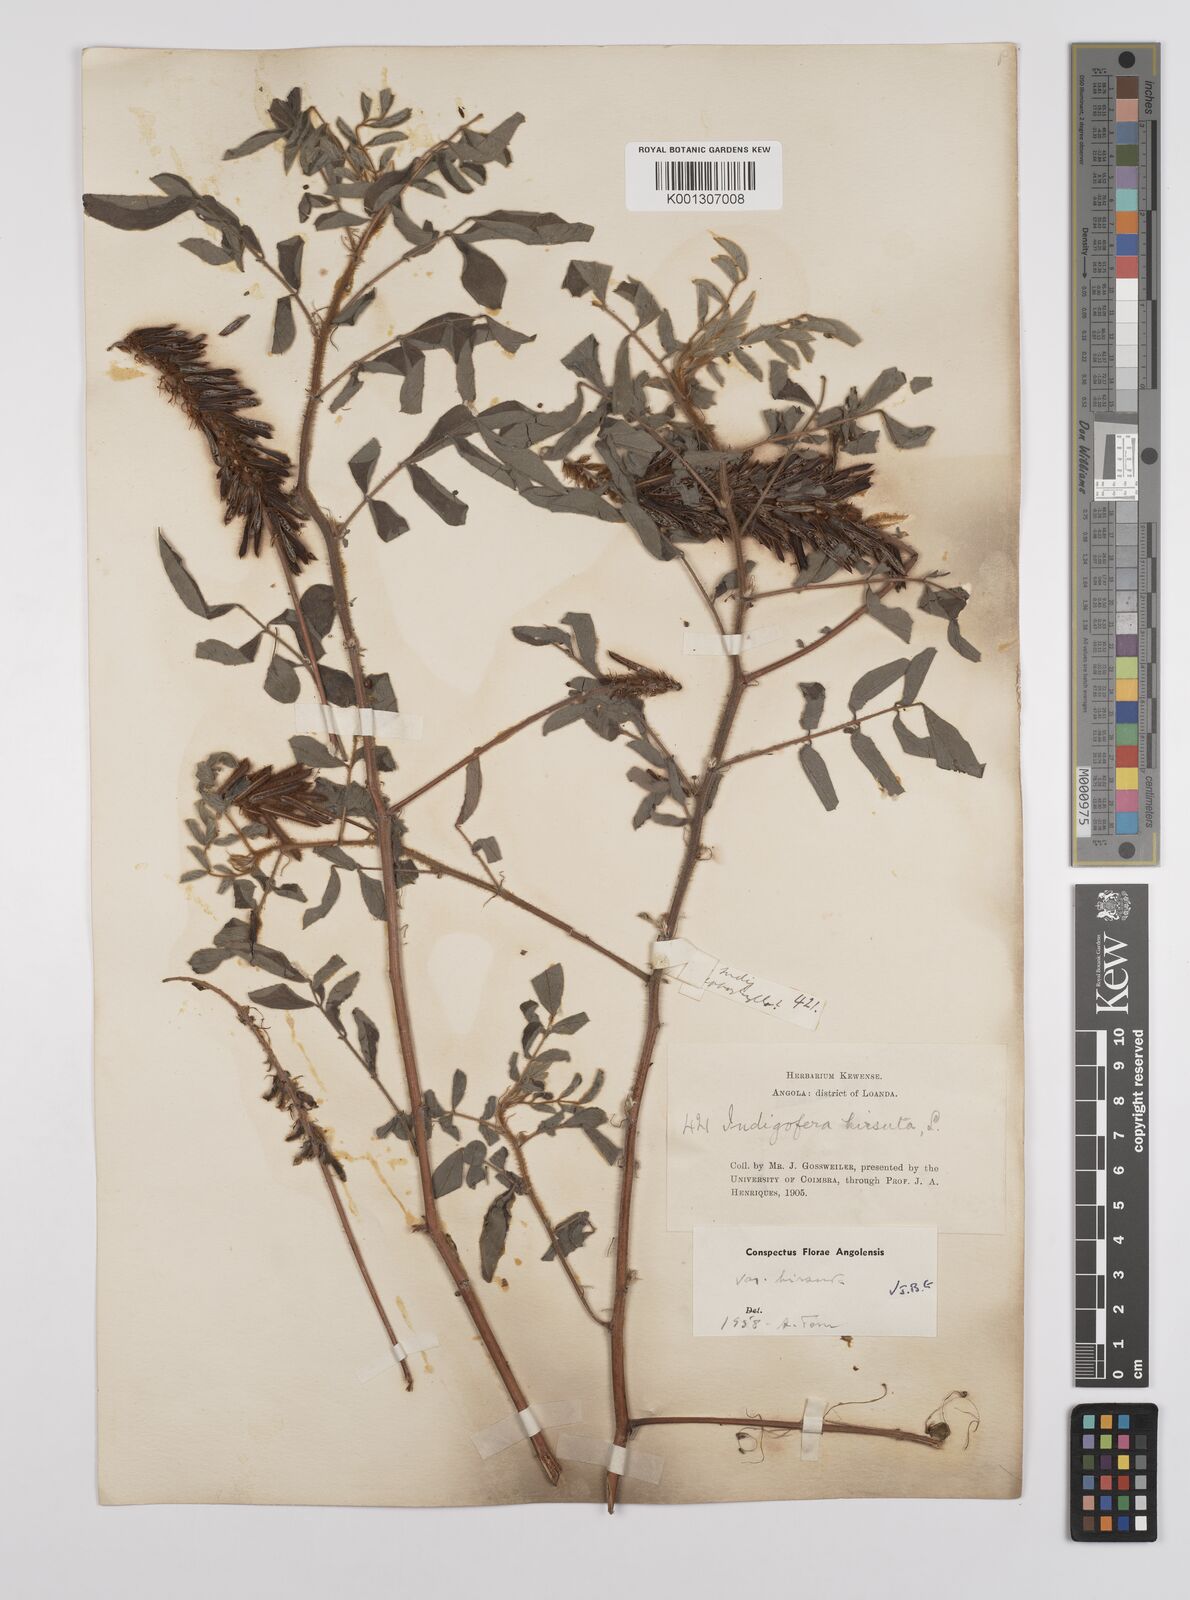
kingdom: Plantae
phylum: Tracheophyta
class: Magnoliopsida
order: Fabales
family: Fabaceae
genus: Indigofera
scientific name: Indigofera hirsuta
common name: Hairy indigo
